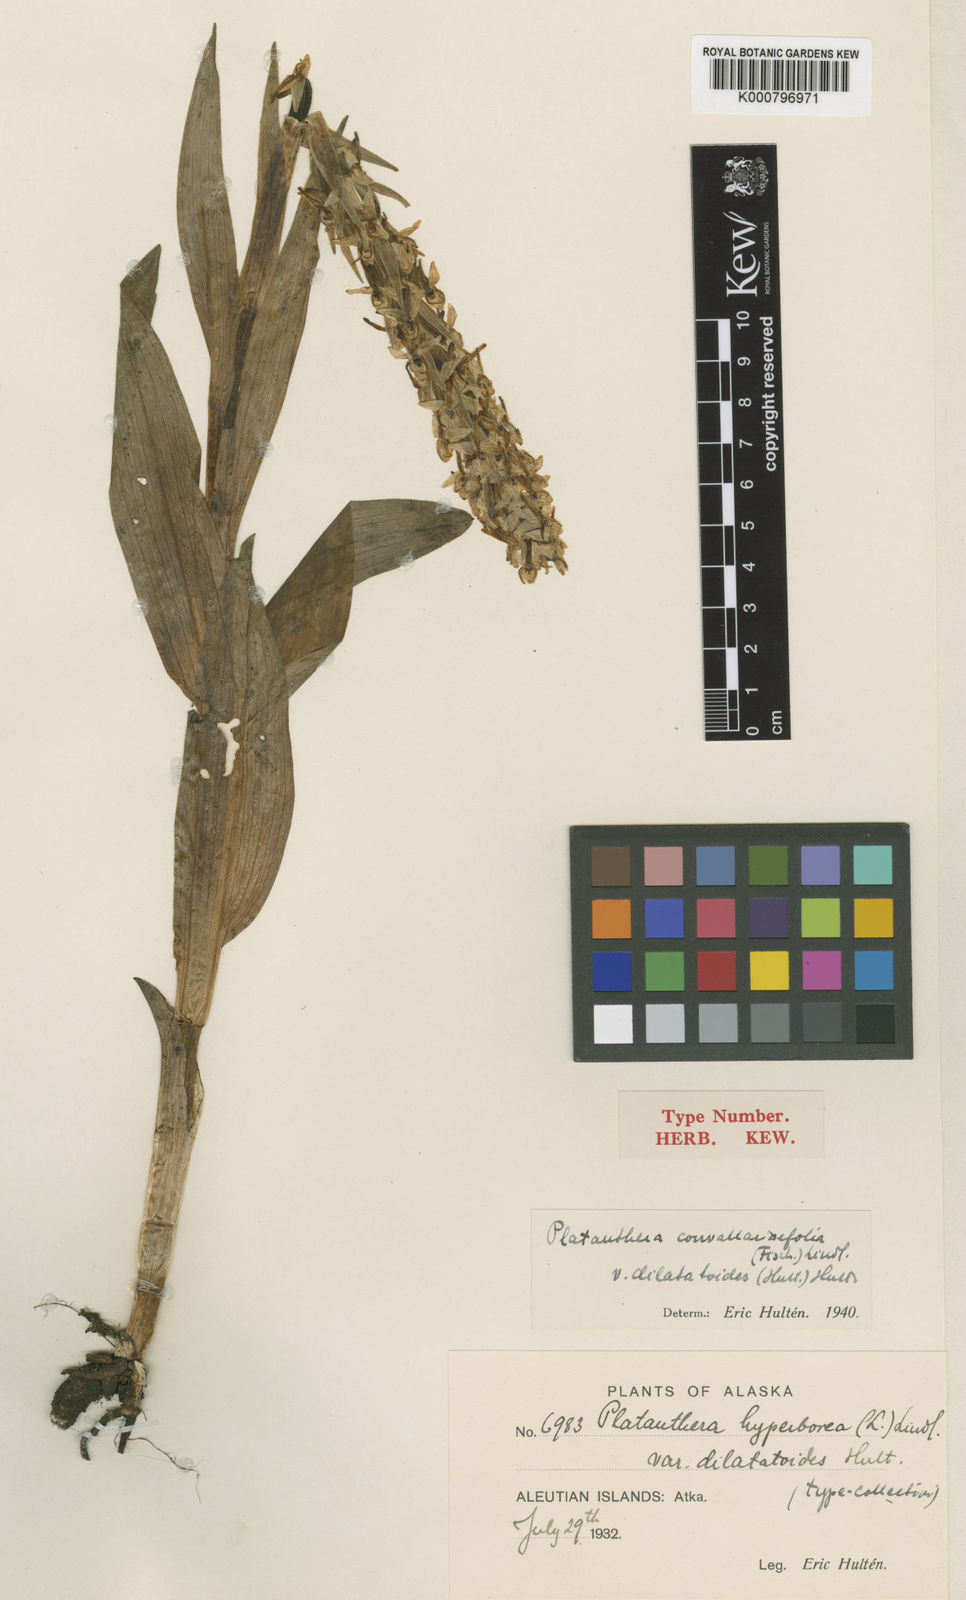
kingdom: Plantae
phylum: Tracheophyta
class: Liliopsida
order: Asparagales
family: Orchidaceae
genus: Platanthera
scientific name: Platanthera convallariifolia
